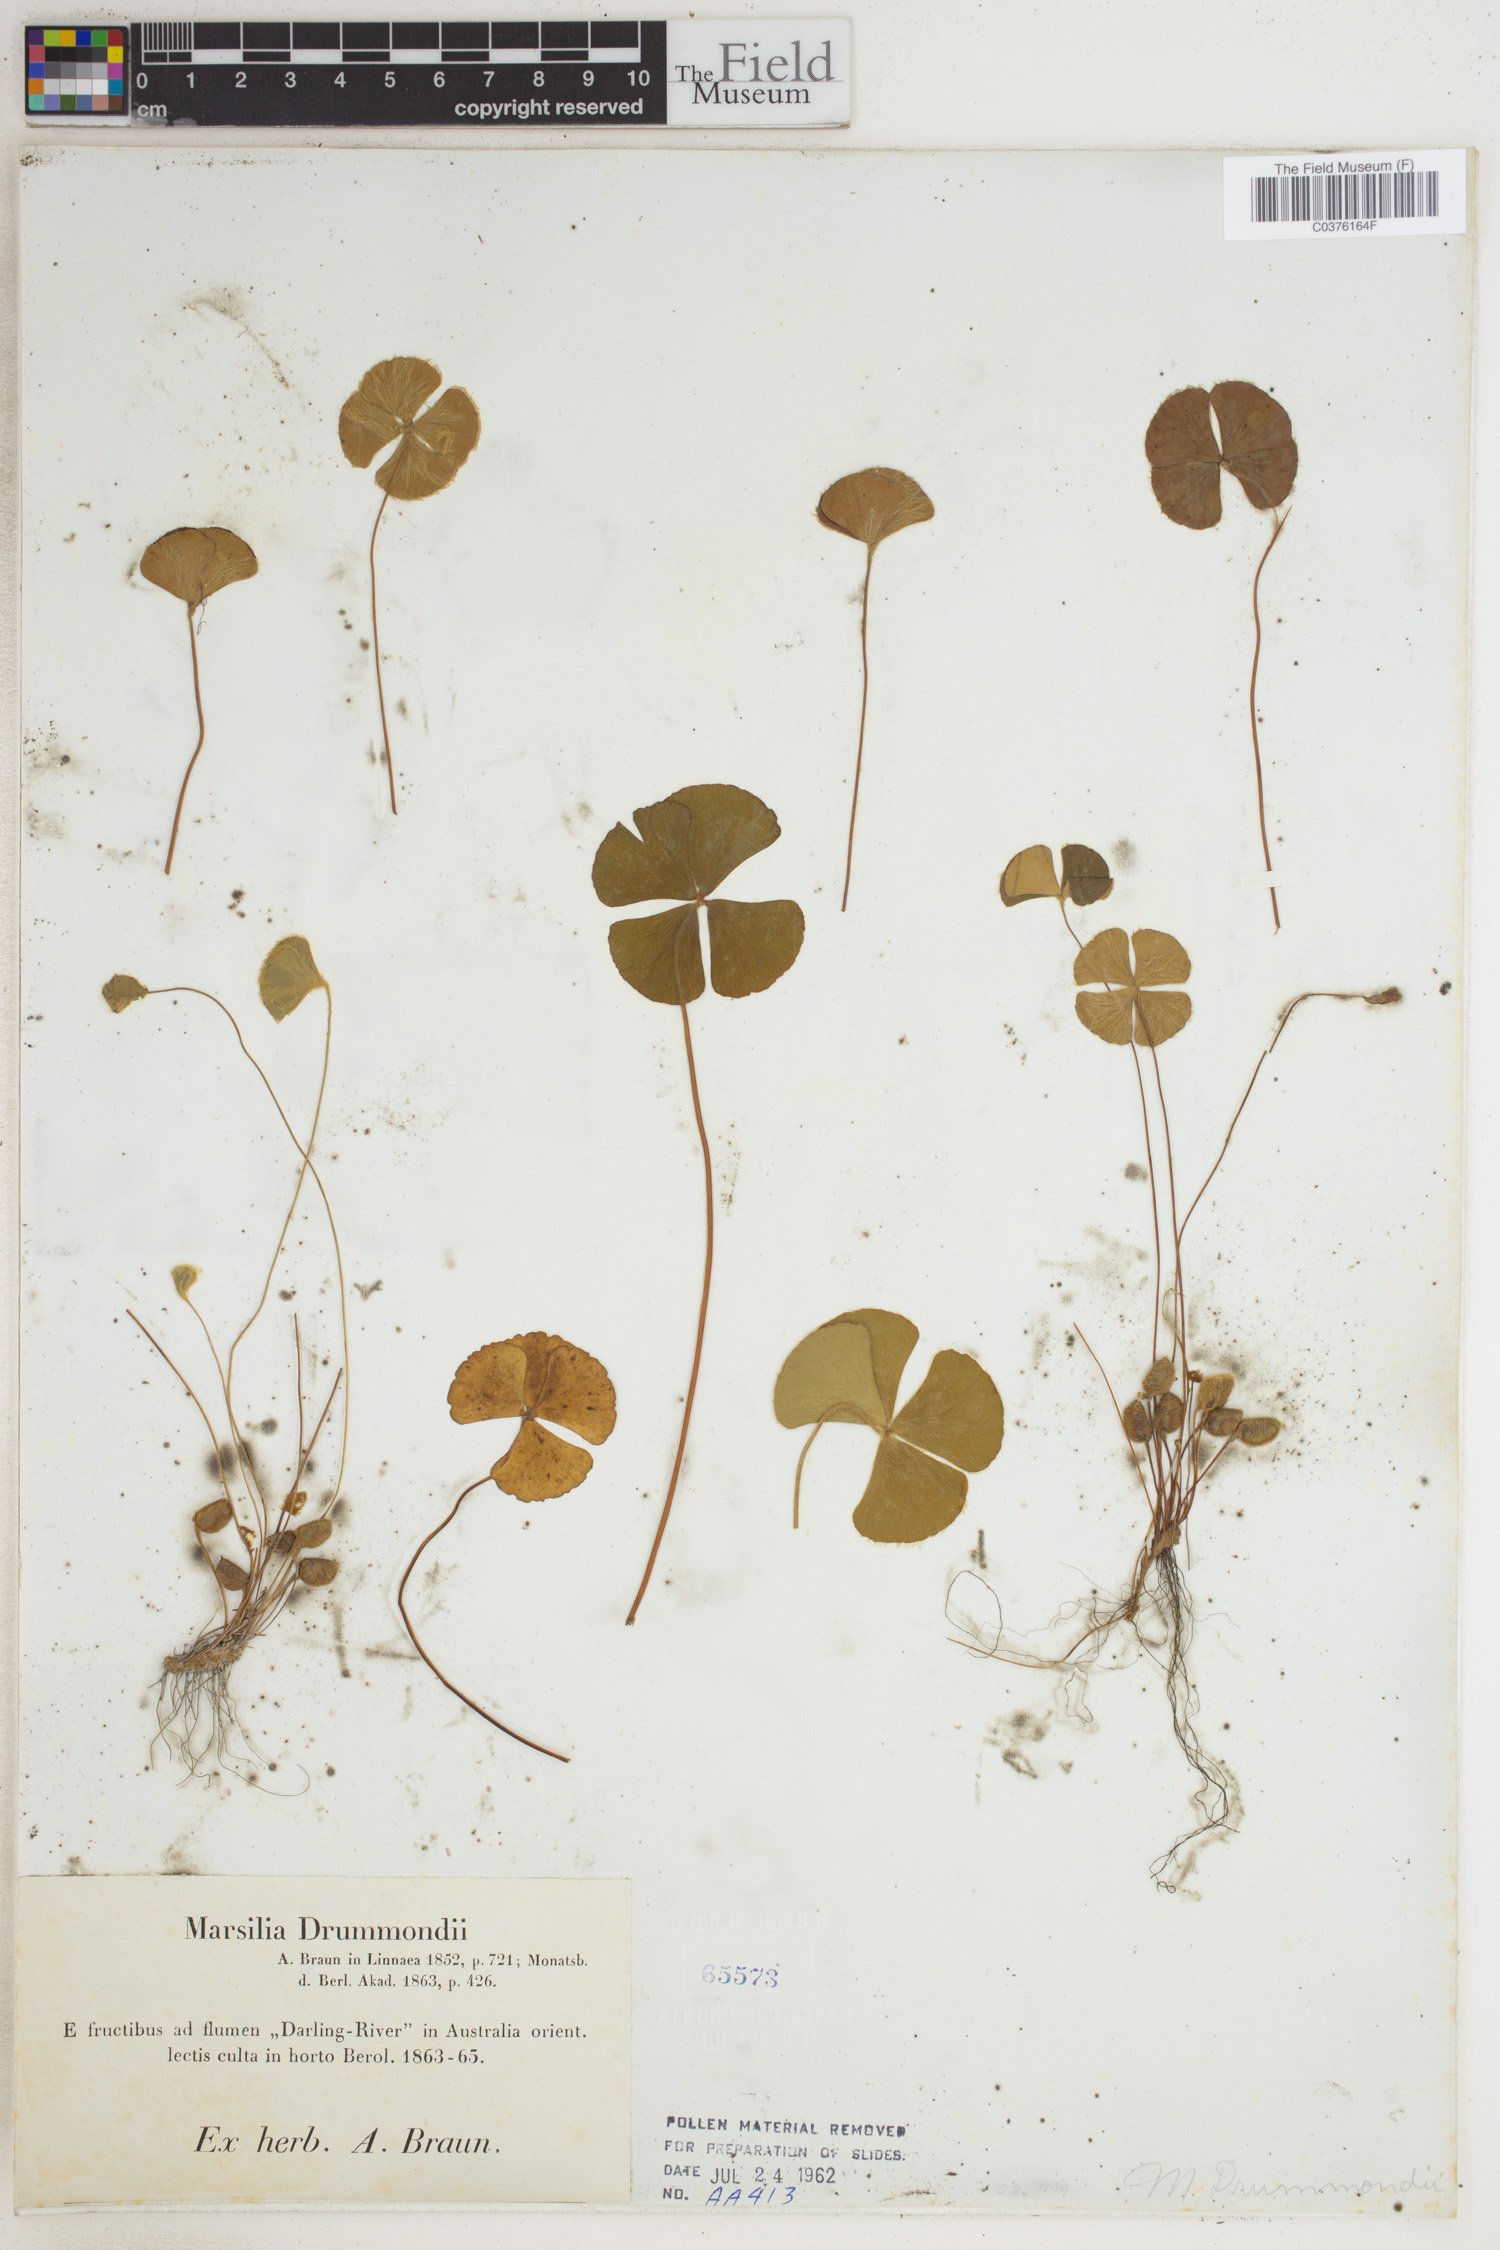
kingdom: Plantae
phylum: Tracheophyta
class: Polypodiopsida
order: Salviniales
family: Marsileaceae
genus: Marsilea
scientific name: Marsilea drummondii
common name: Nardoo
